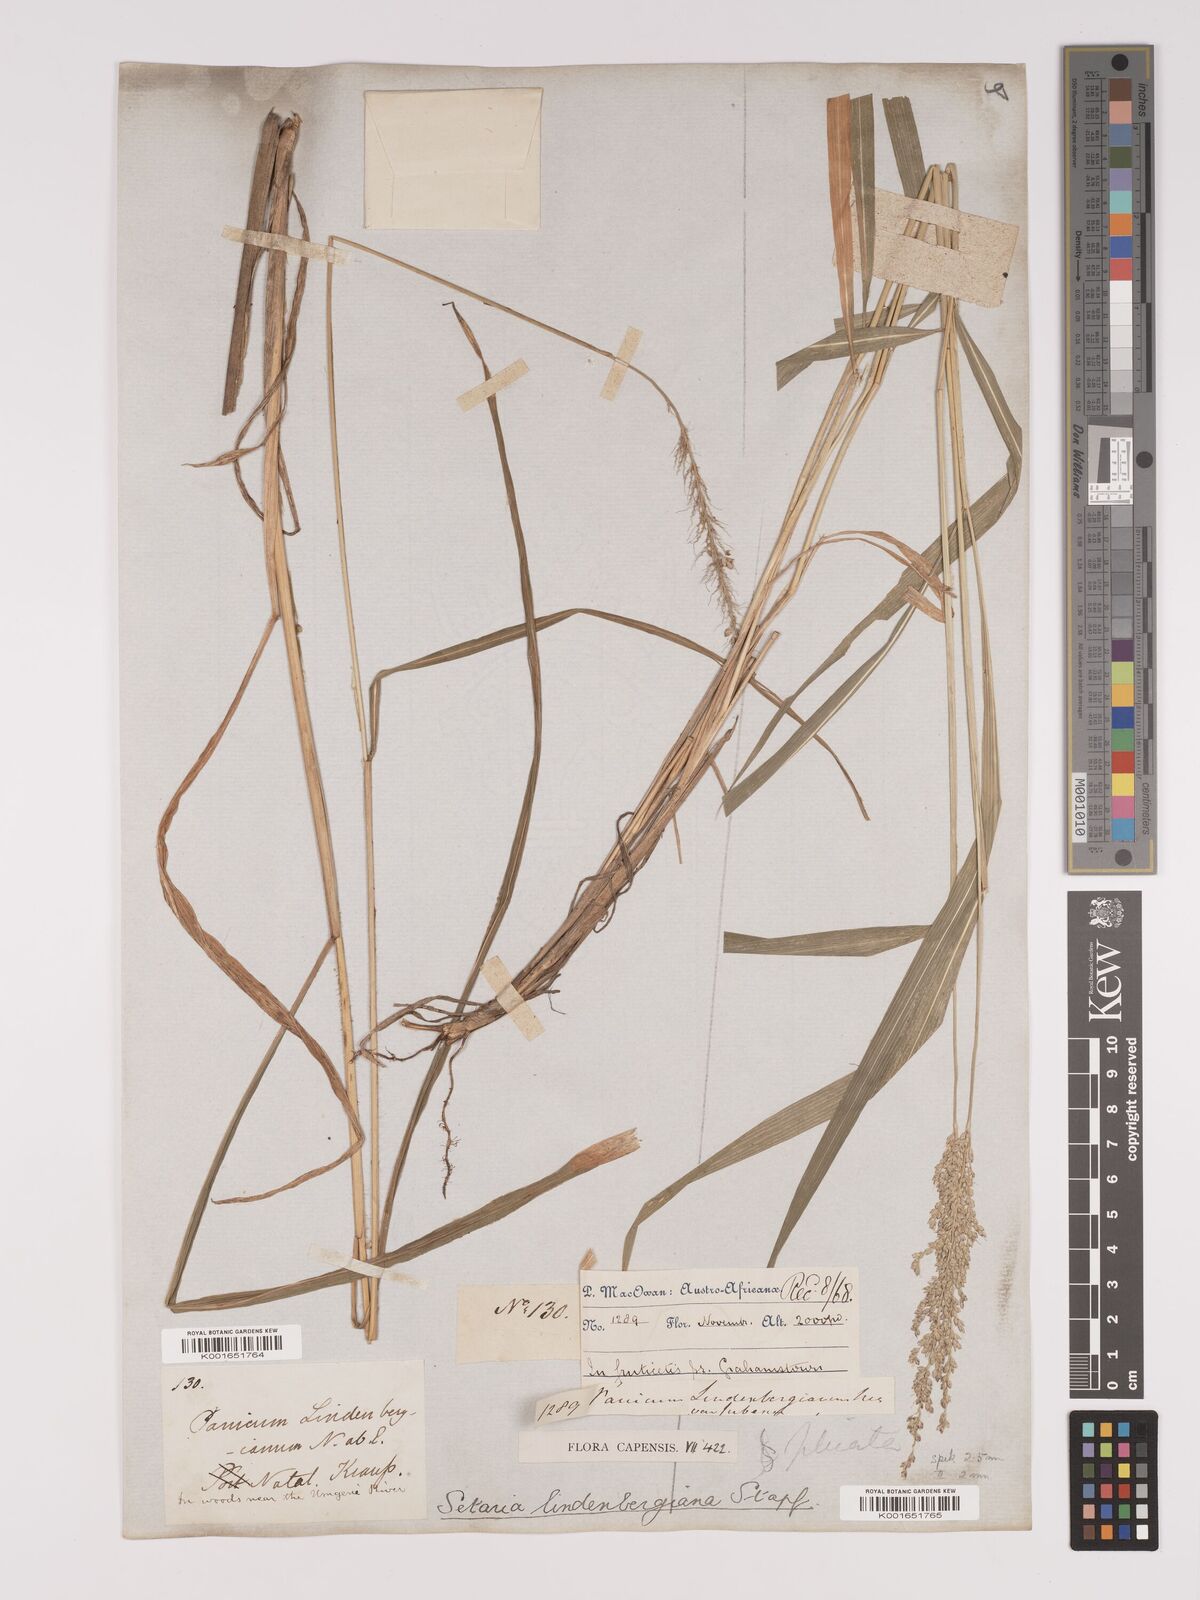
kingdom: Plantae
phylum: Tracheophyta
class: Liliopsida
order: Poales
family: Poaceae
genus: Setaria
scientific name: Setaria lindenbergiana
